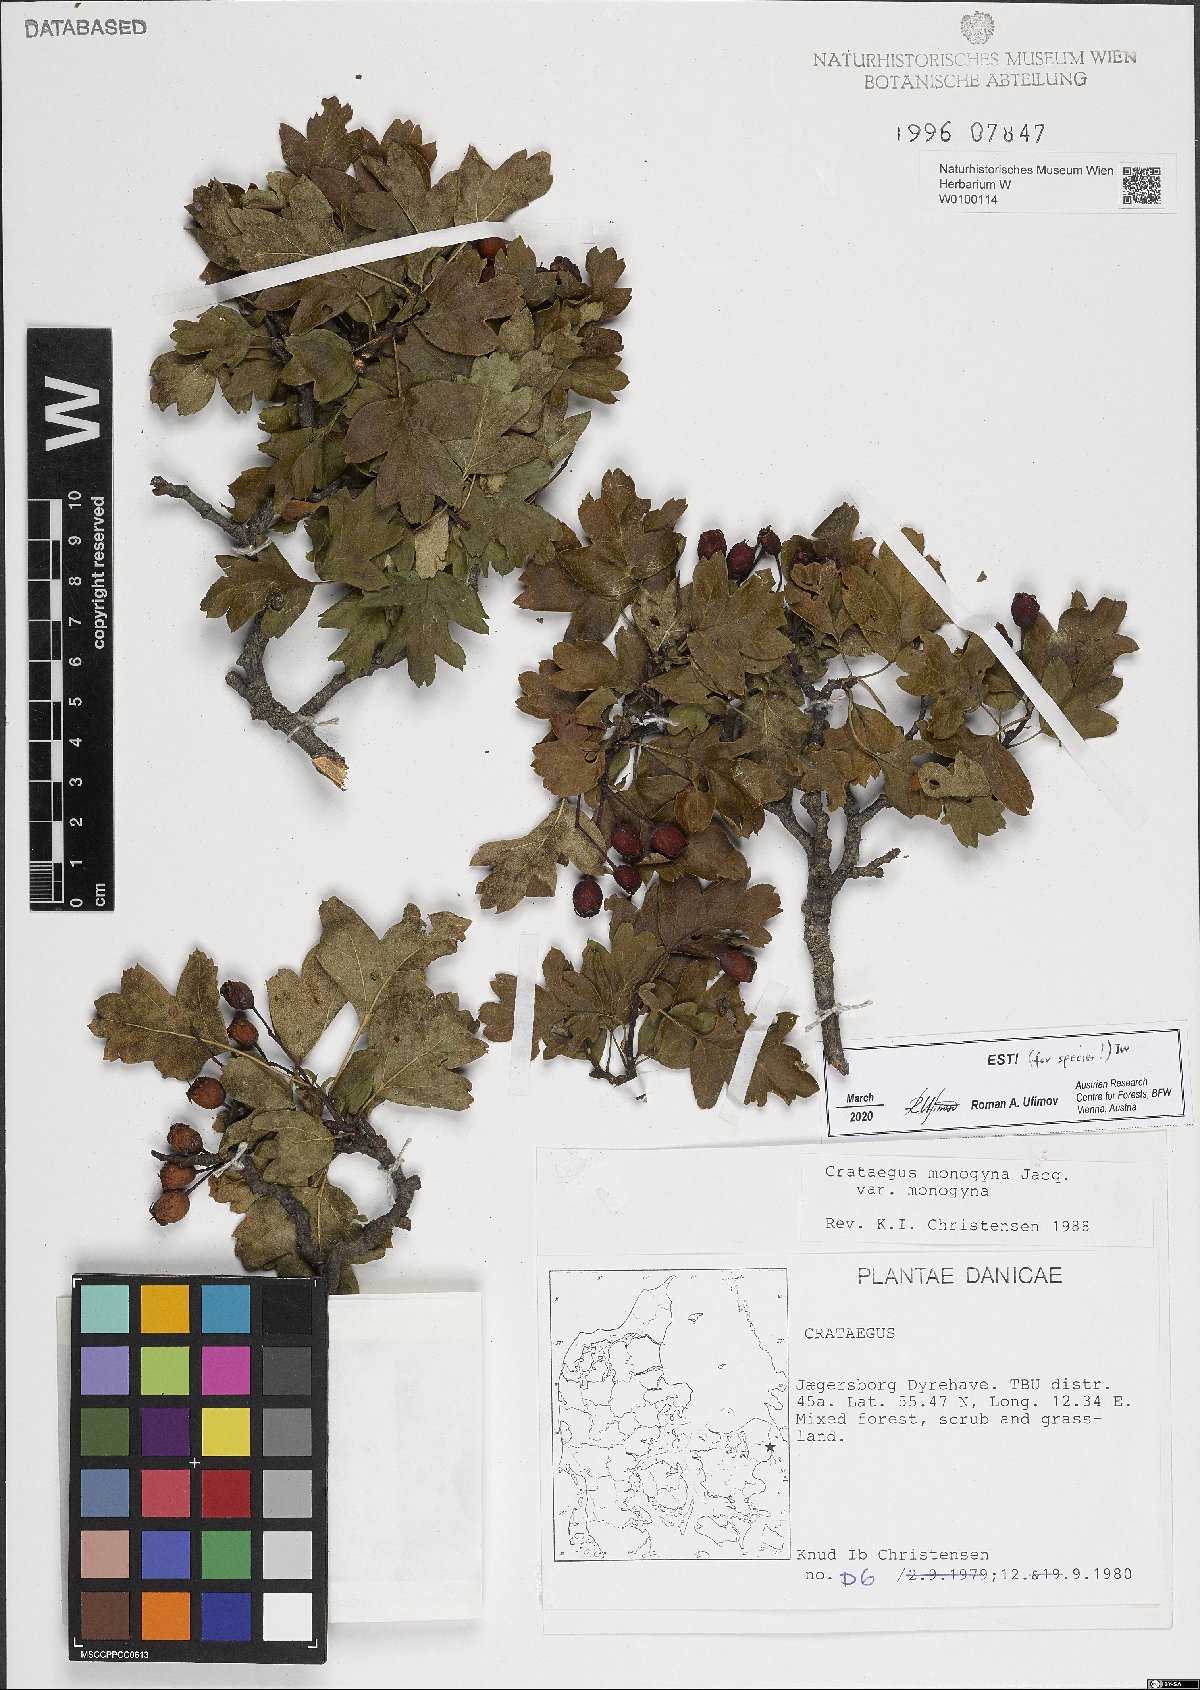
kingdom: Plantae
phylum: Tracheophyta
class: Magnoliopsida
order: Rosales
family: Rosaceae
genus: Crataegus
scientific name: Crataegus monogyna
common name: Hawthorn
